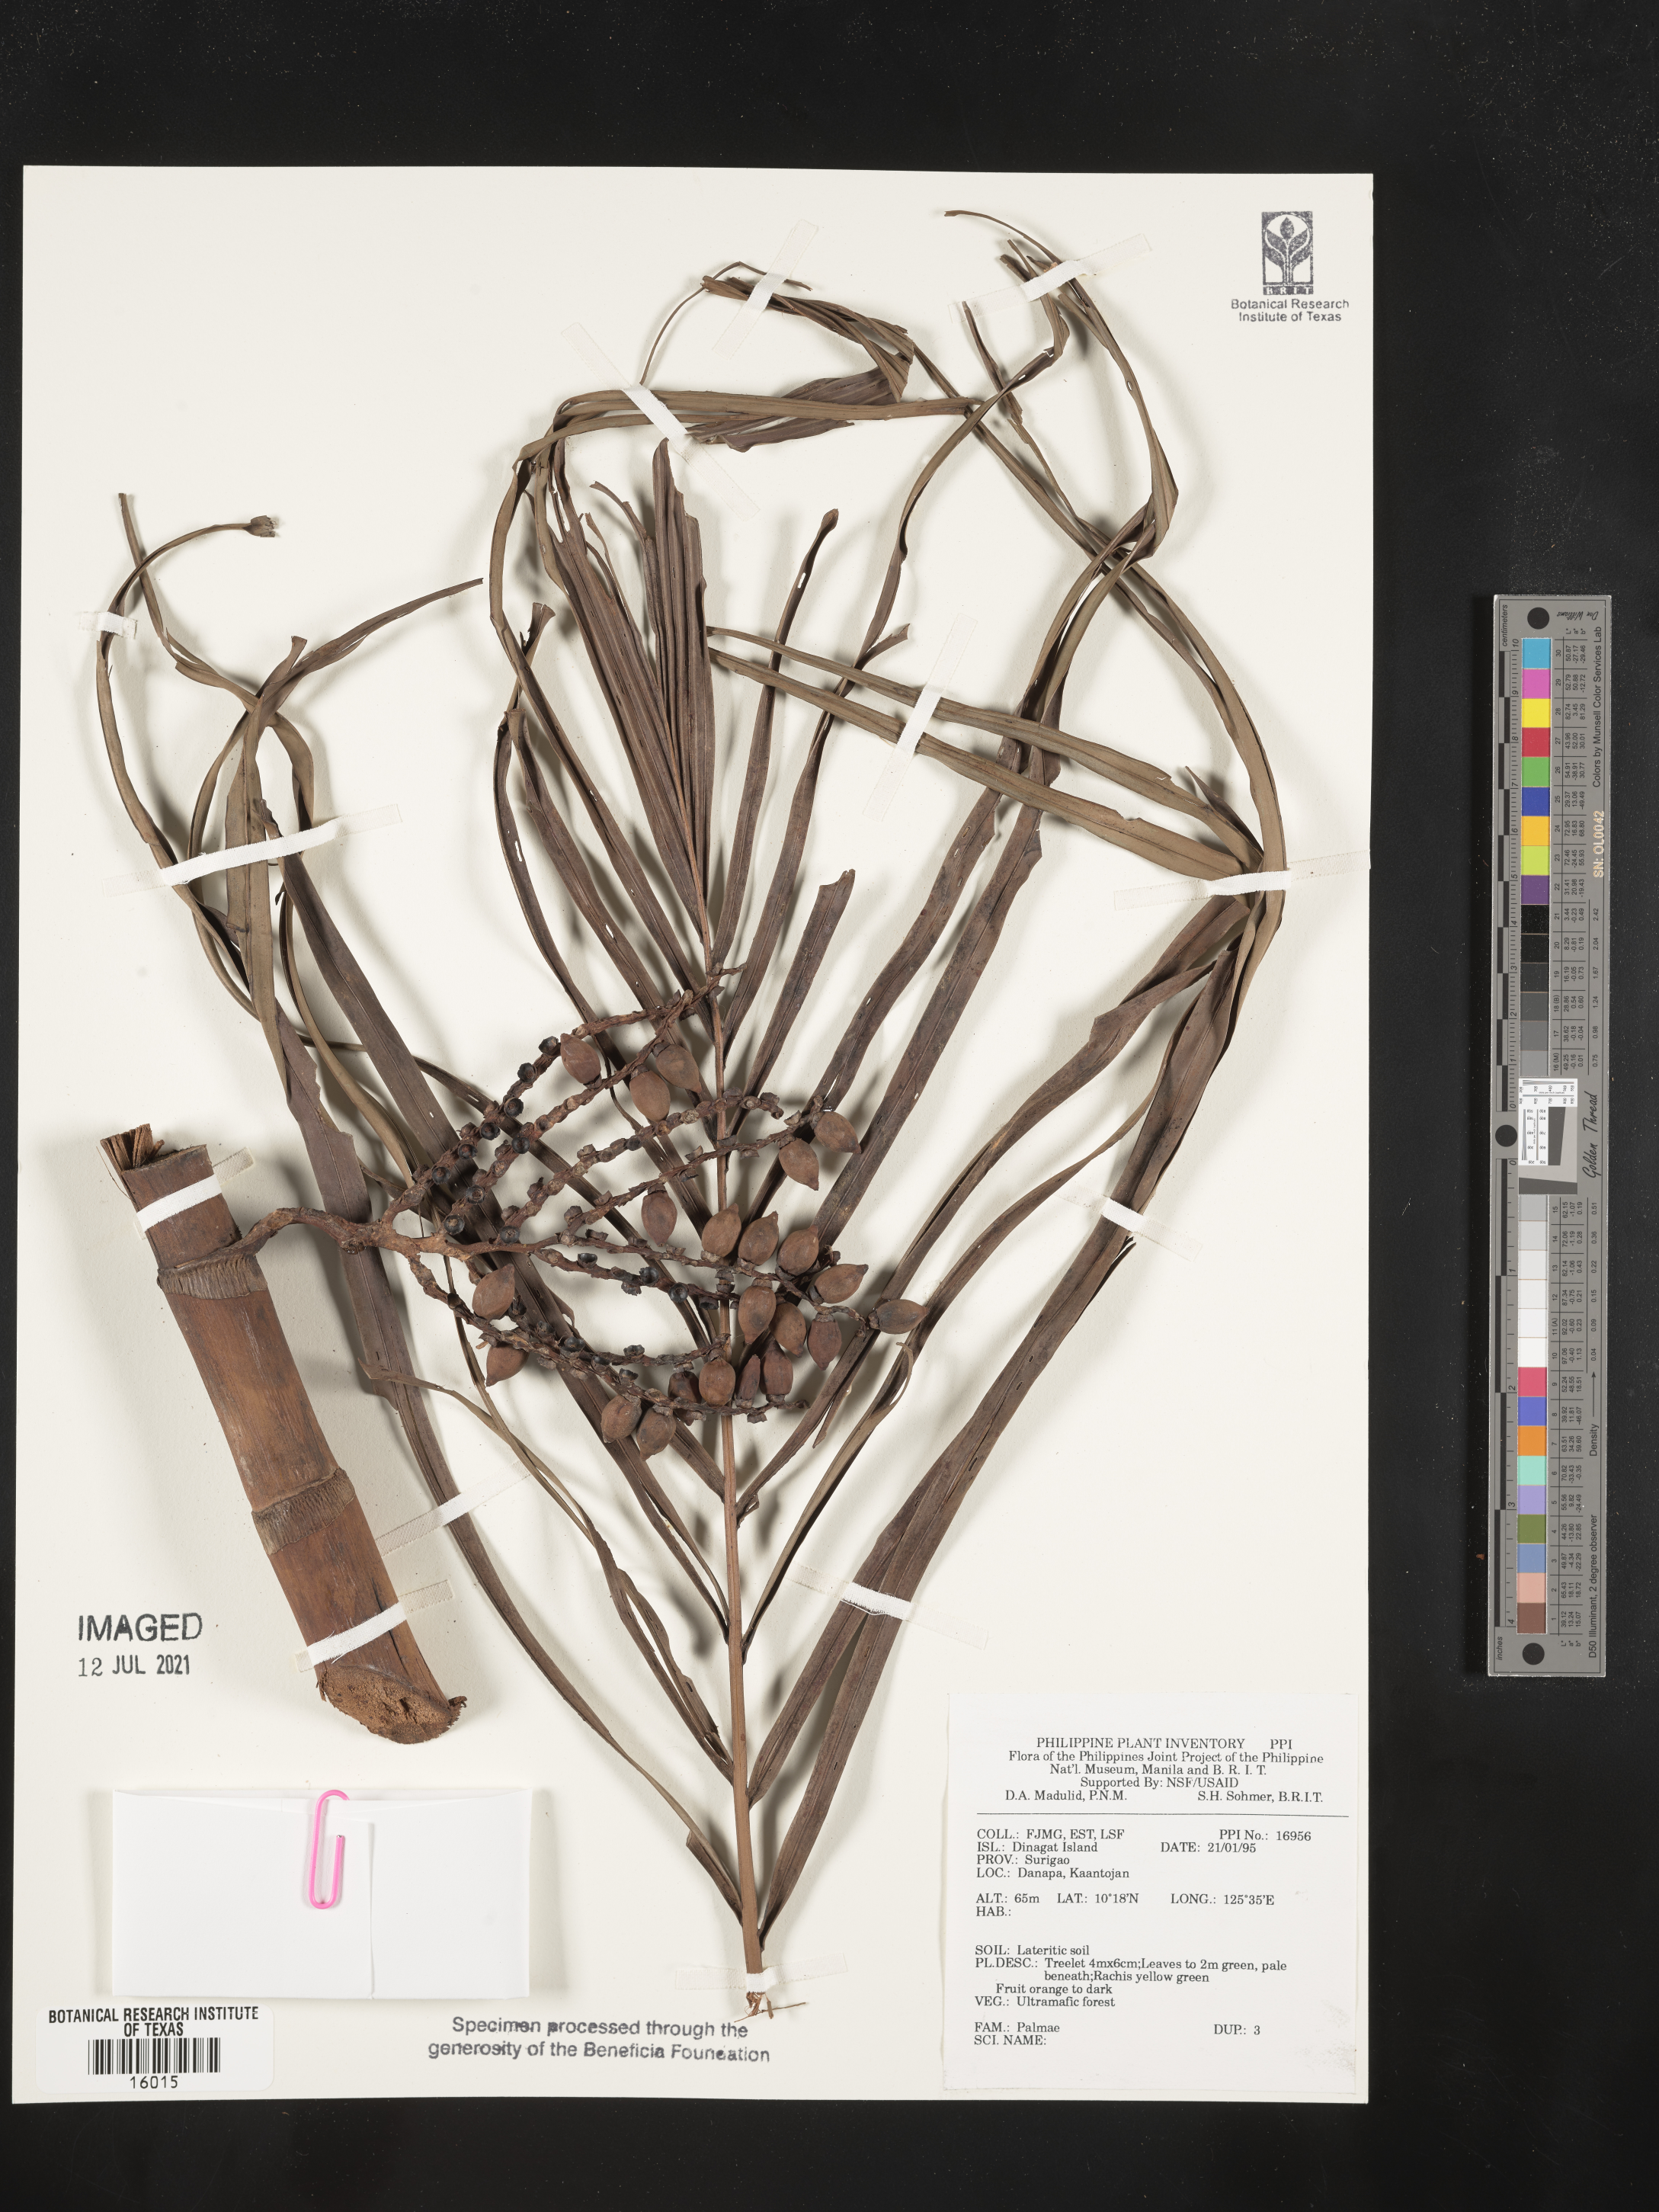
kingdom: Plantae
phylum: Tracheophyta
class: Liliopsida
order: Arecales
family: Arecaceae
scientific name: Arecaceae
